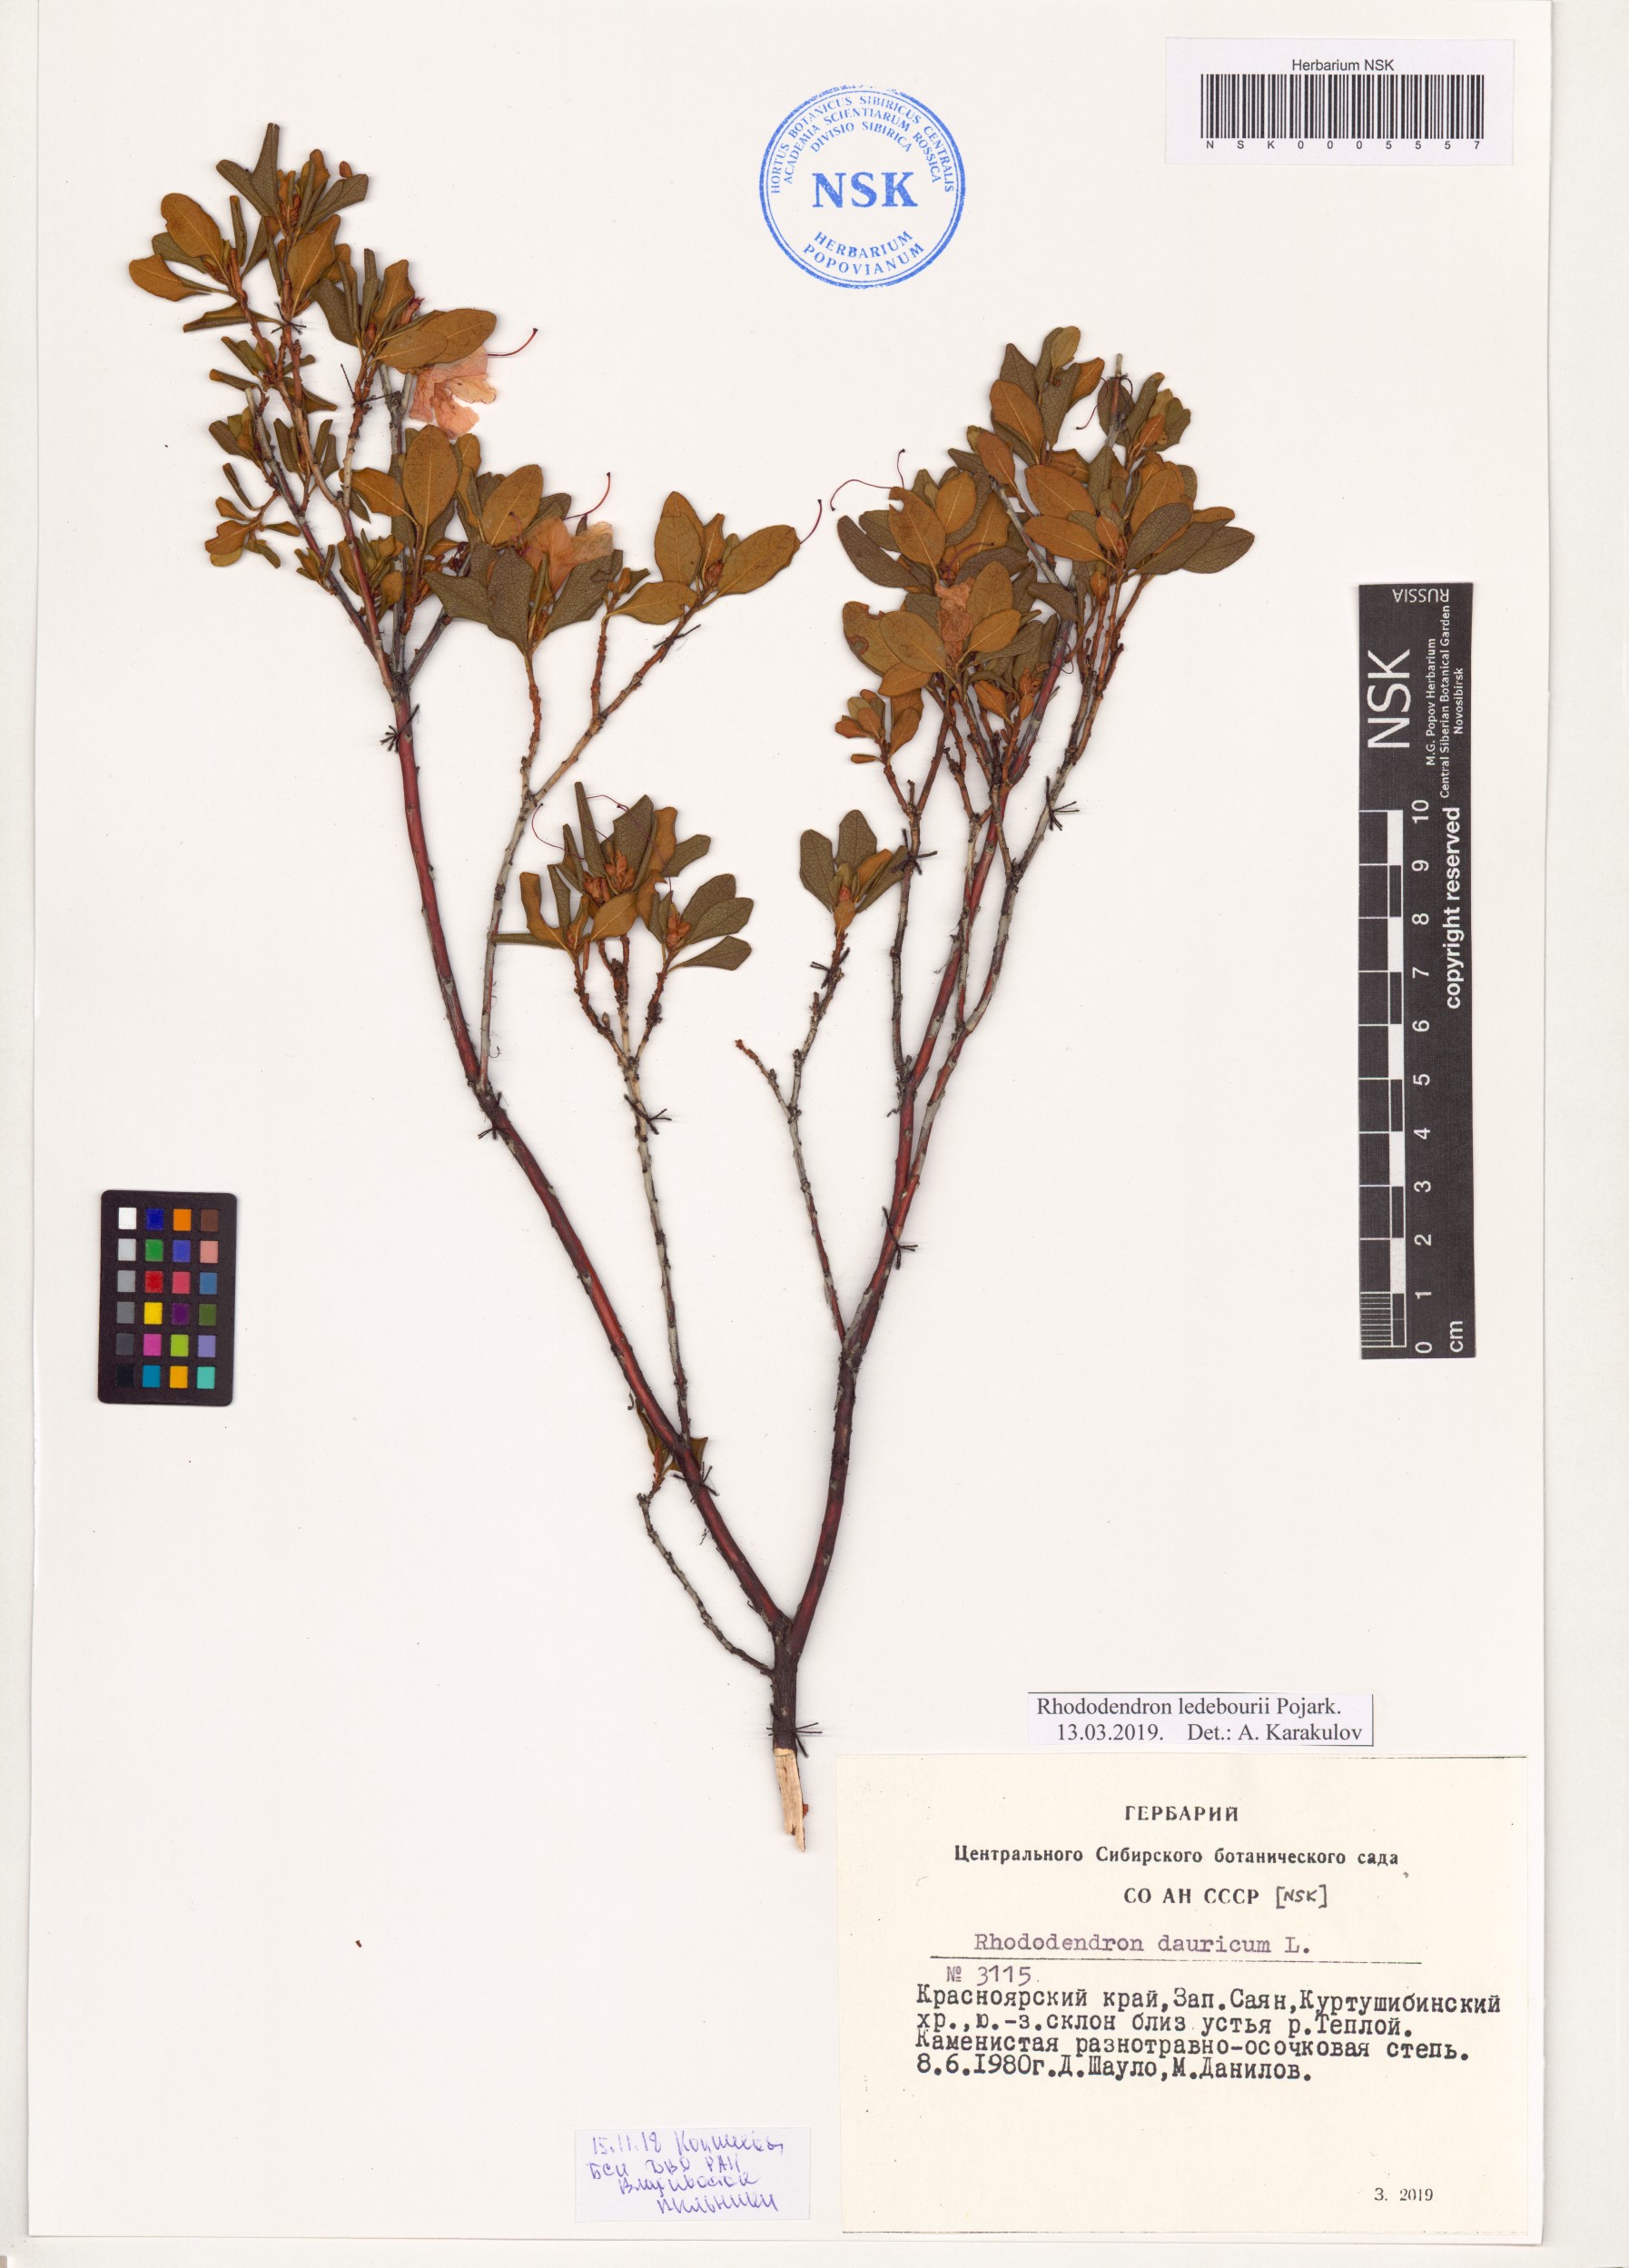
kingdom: Plantae
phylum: Tracheophyta
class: Magnoliopsida
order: Ericales
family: Ericaceae
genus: Rhododendron
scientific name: Rhododendron dauricum
